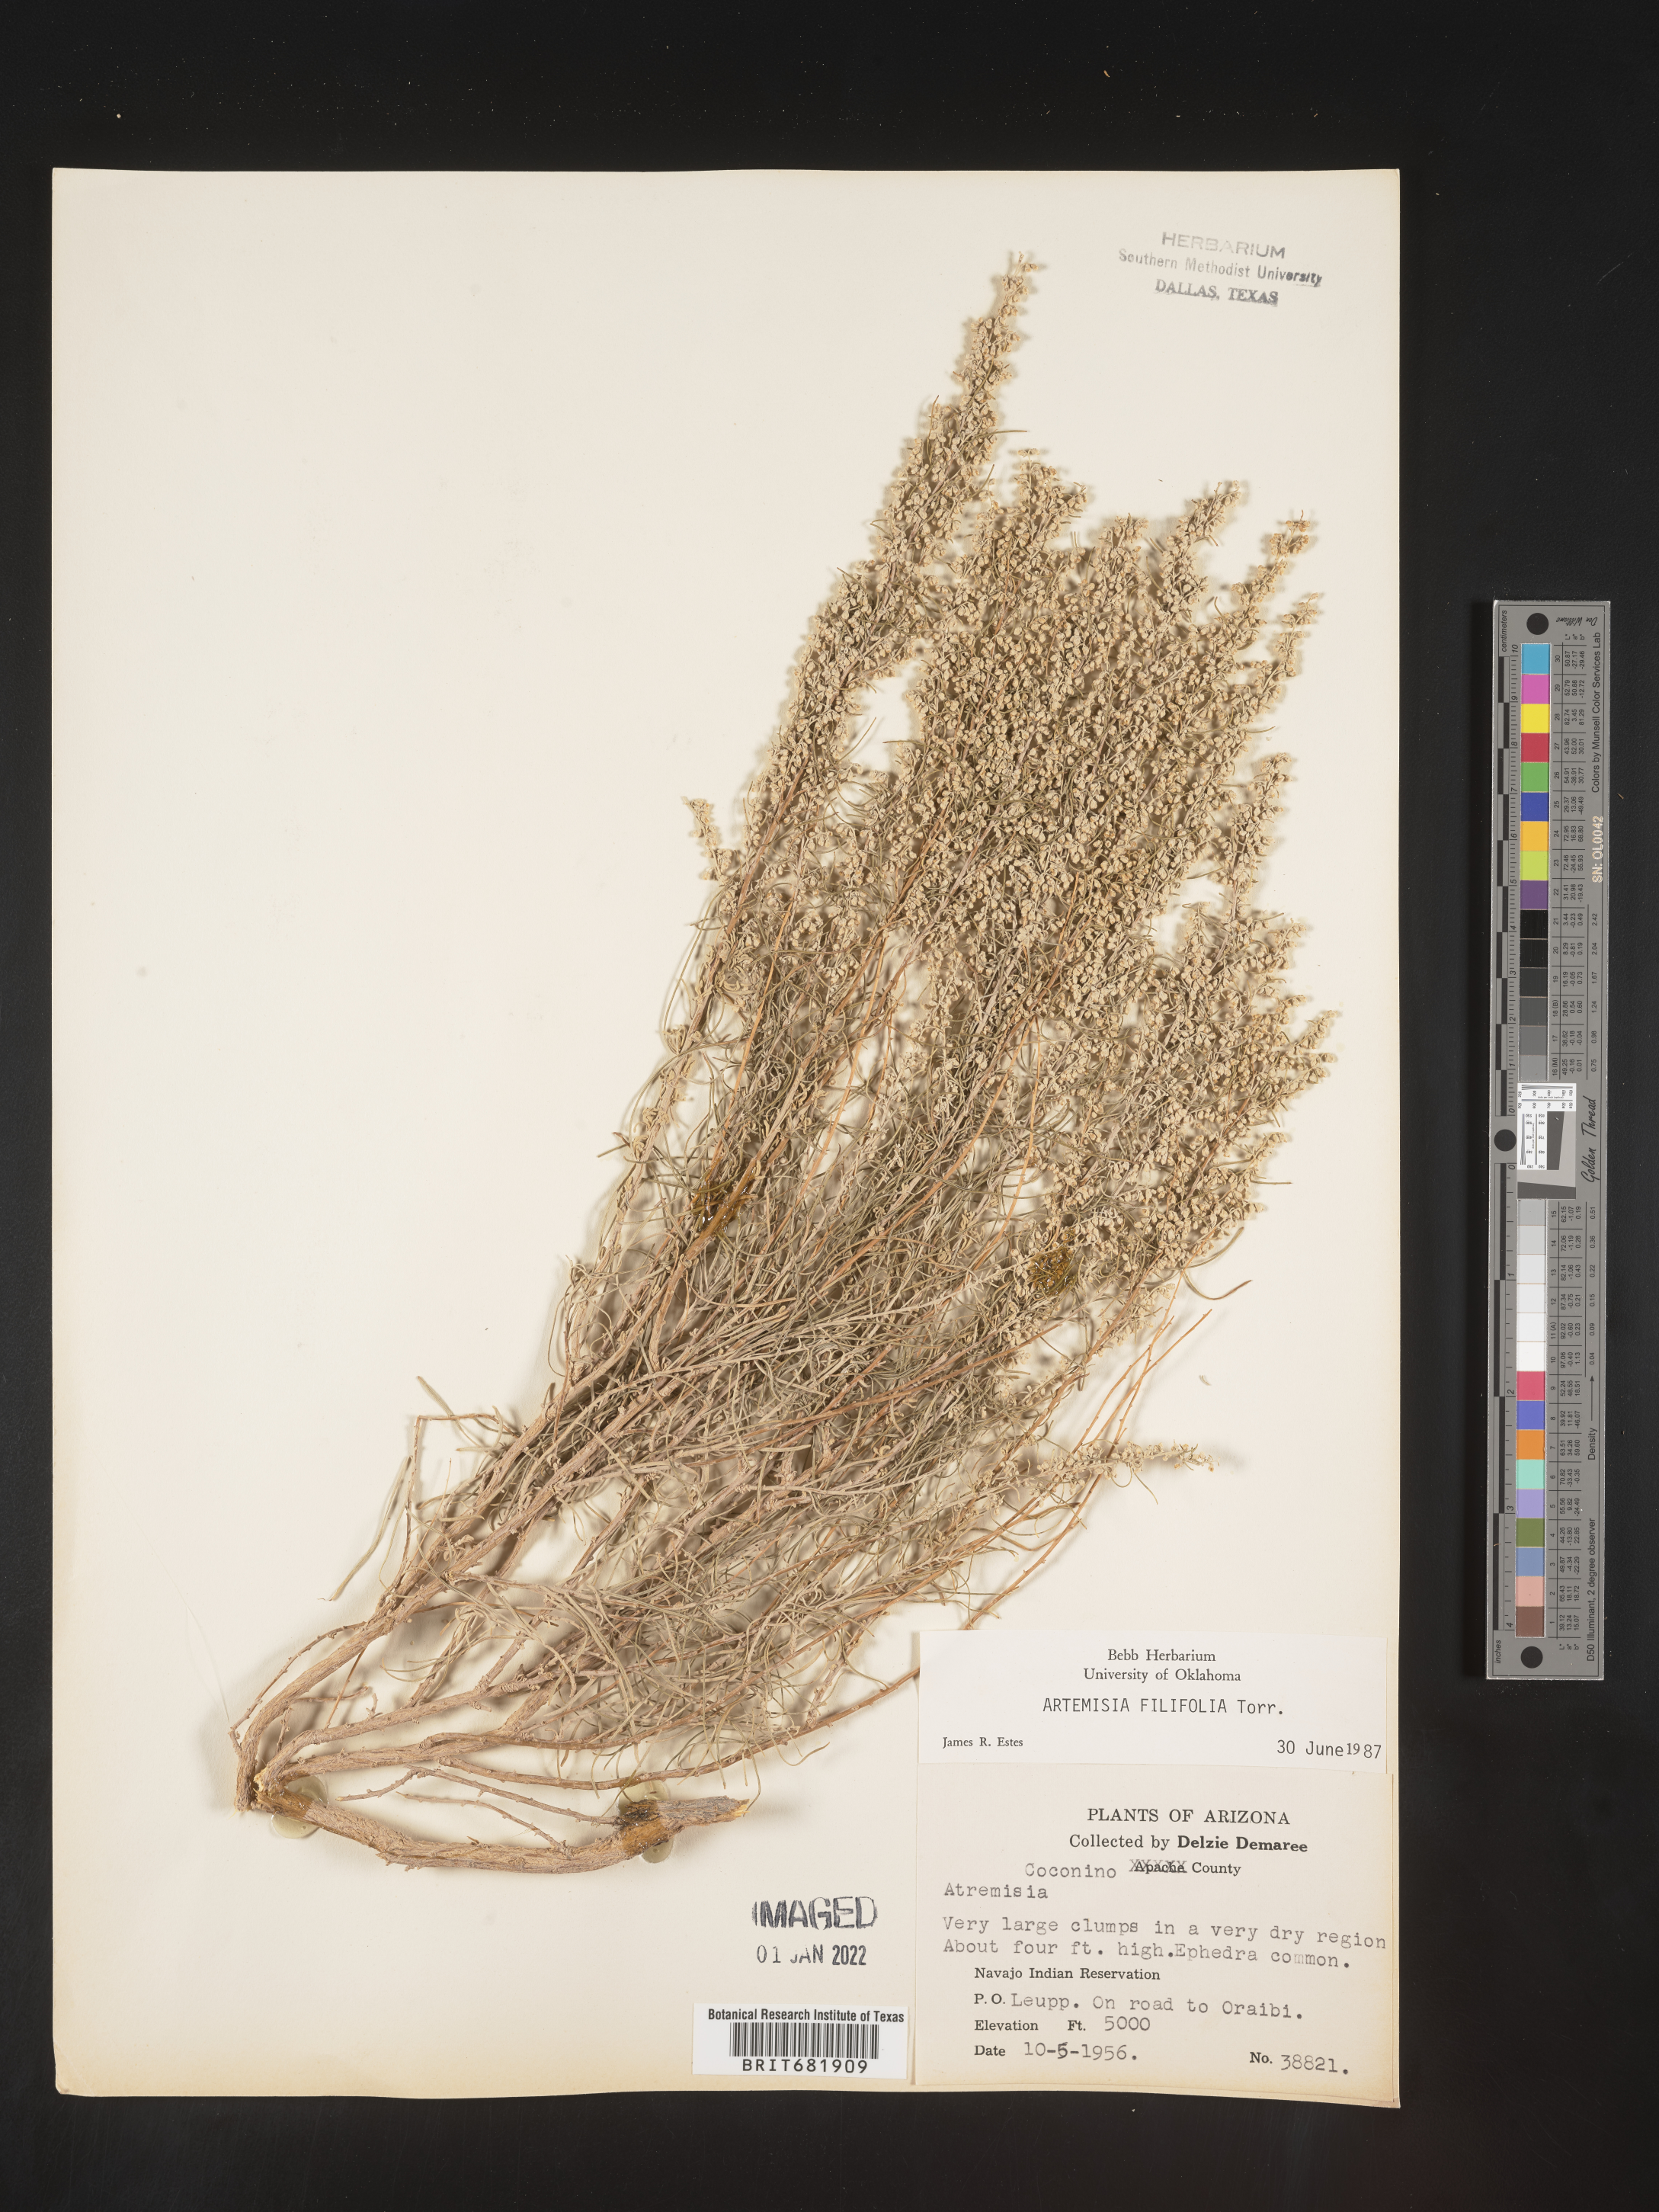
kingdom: Plantae
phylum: Tracheophyta
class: Magnoliopsida
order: Asterales
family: Asteraceae
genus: Artemisia
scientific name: Artemisia filifolia
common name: Sand-sage
